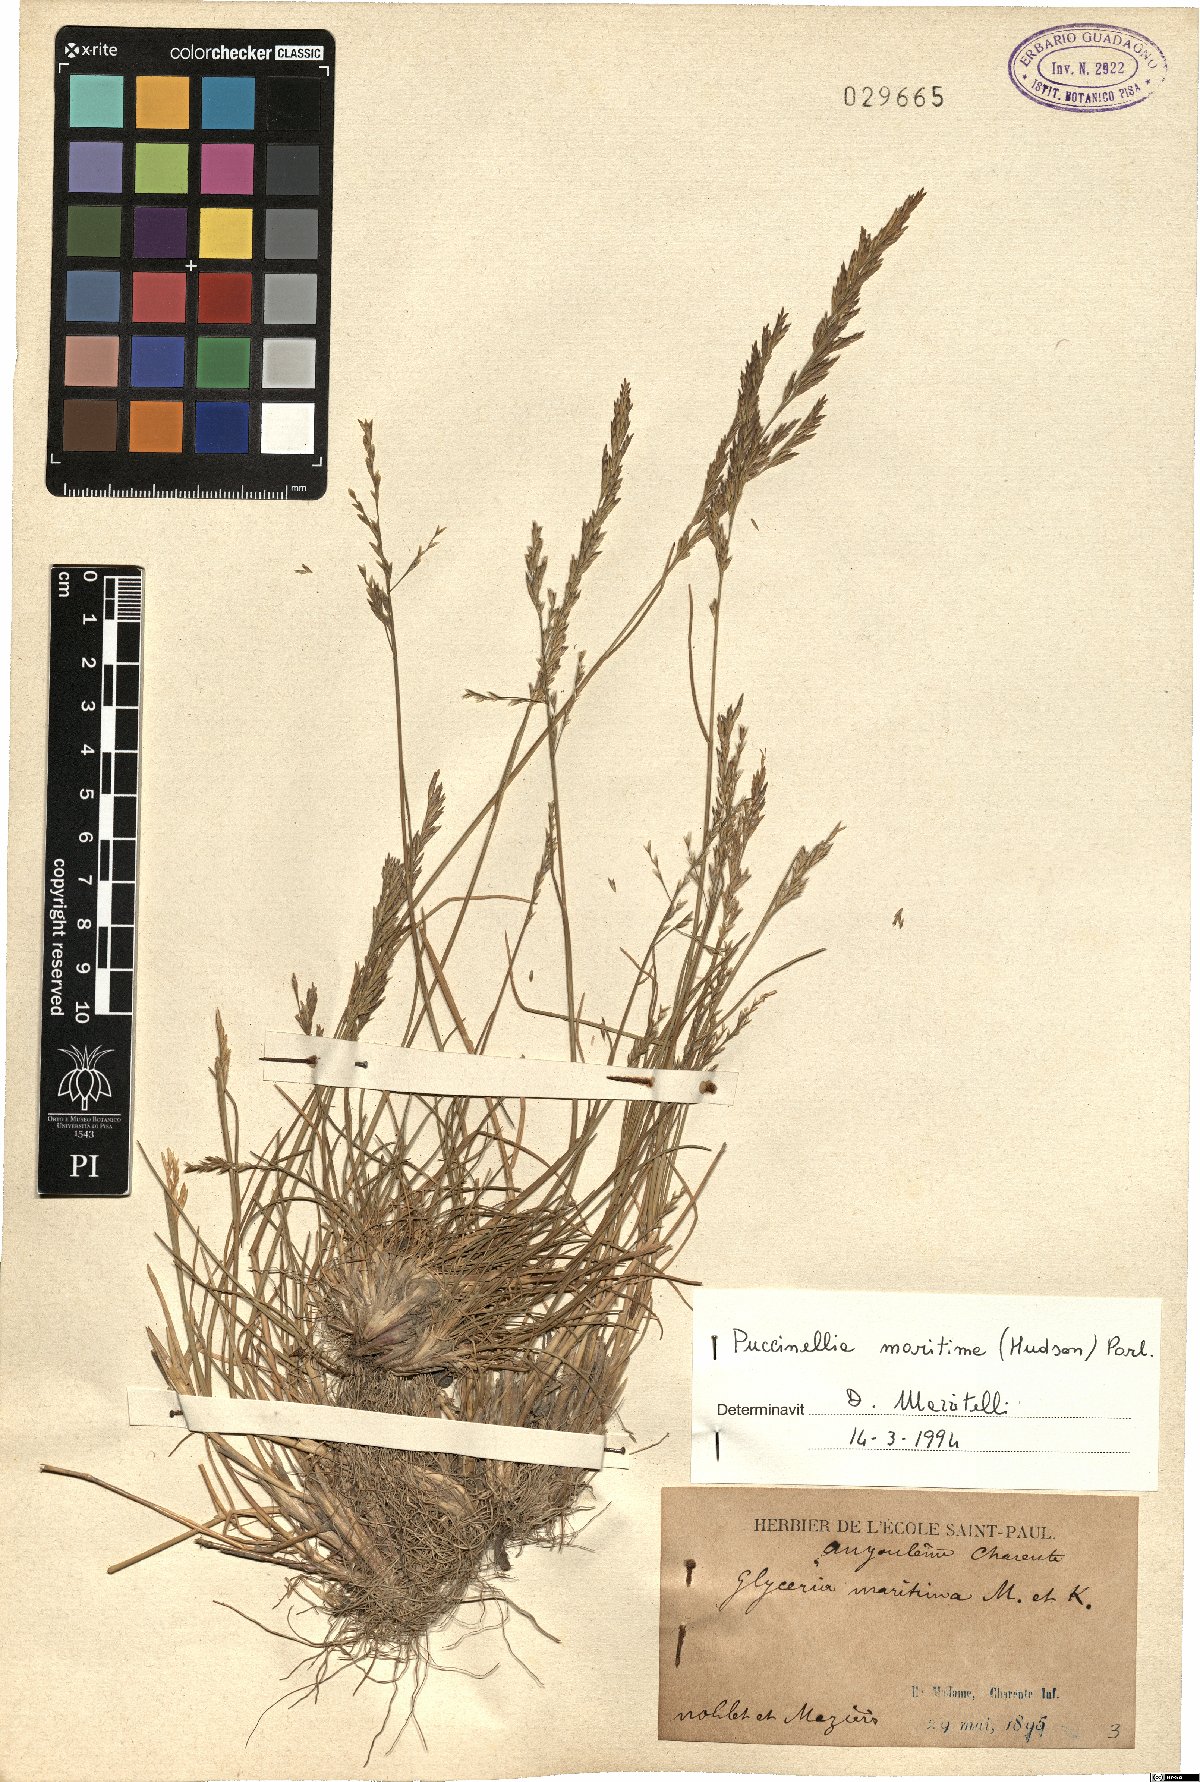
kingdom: Plantae
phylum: Tracheophyta
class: Liliopsida
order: Poales
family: Poaceae
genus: Puccinellia
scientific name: Puccinellia maritima
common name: Common saltmarsh grass
